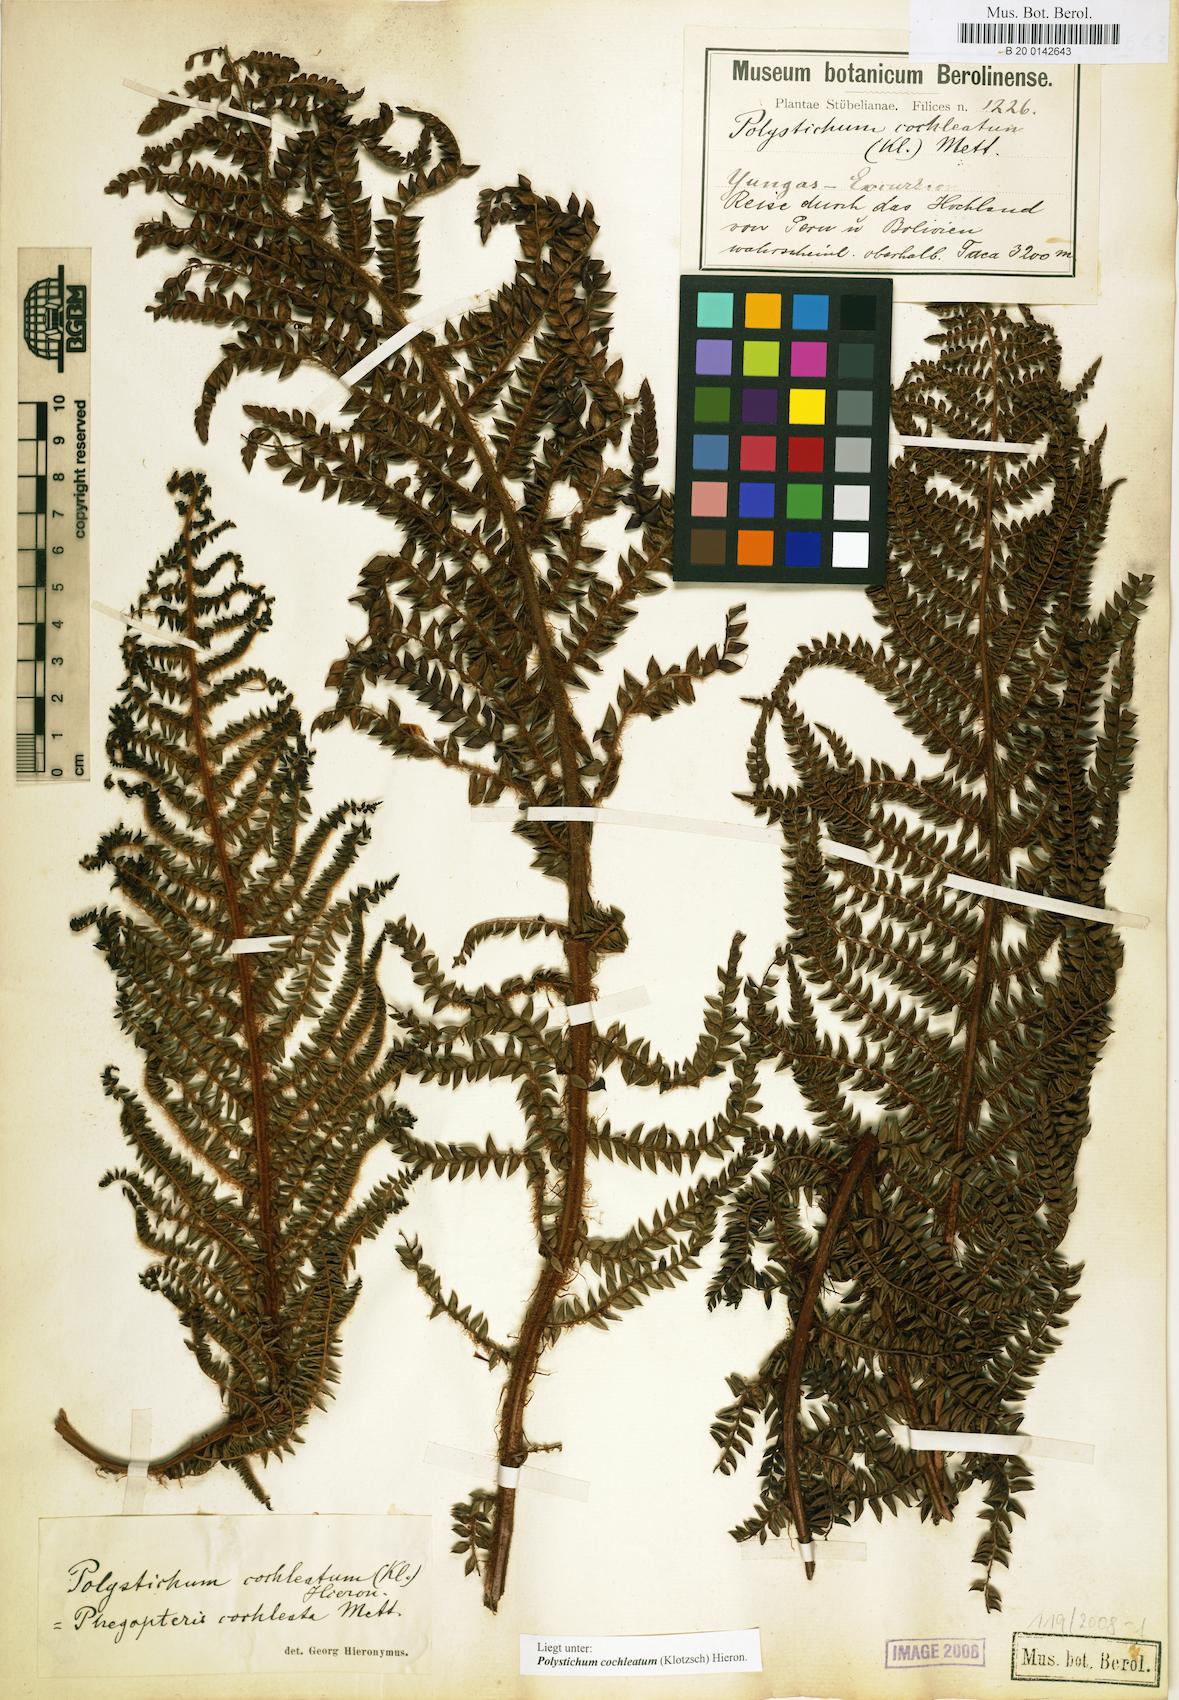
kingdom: Plantae
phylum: Tracheophyta
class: Polypodiopsida
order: Polypodiales
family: Dryopteridaceae
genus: Polystichum
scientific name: Polystichum cochleatum
